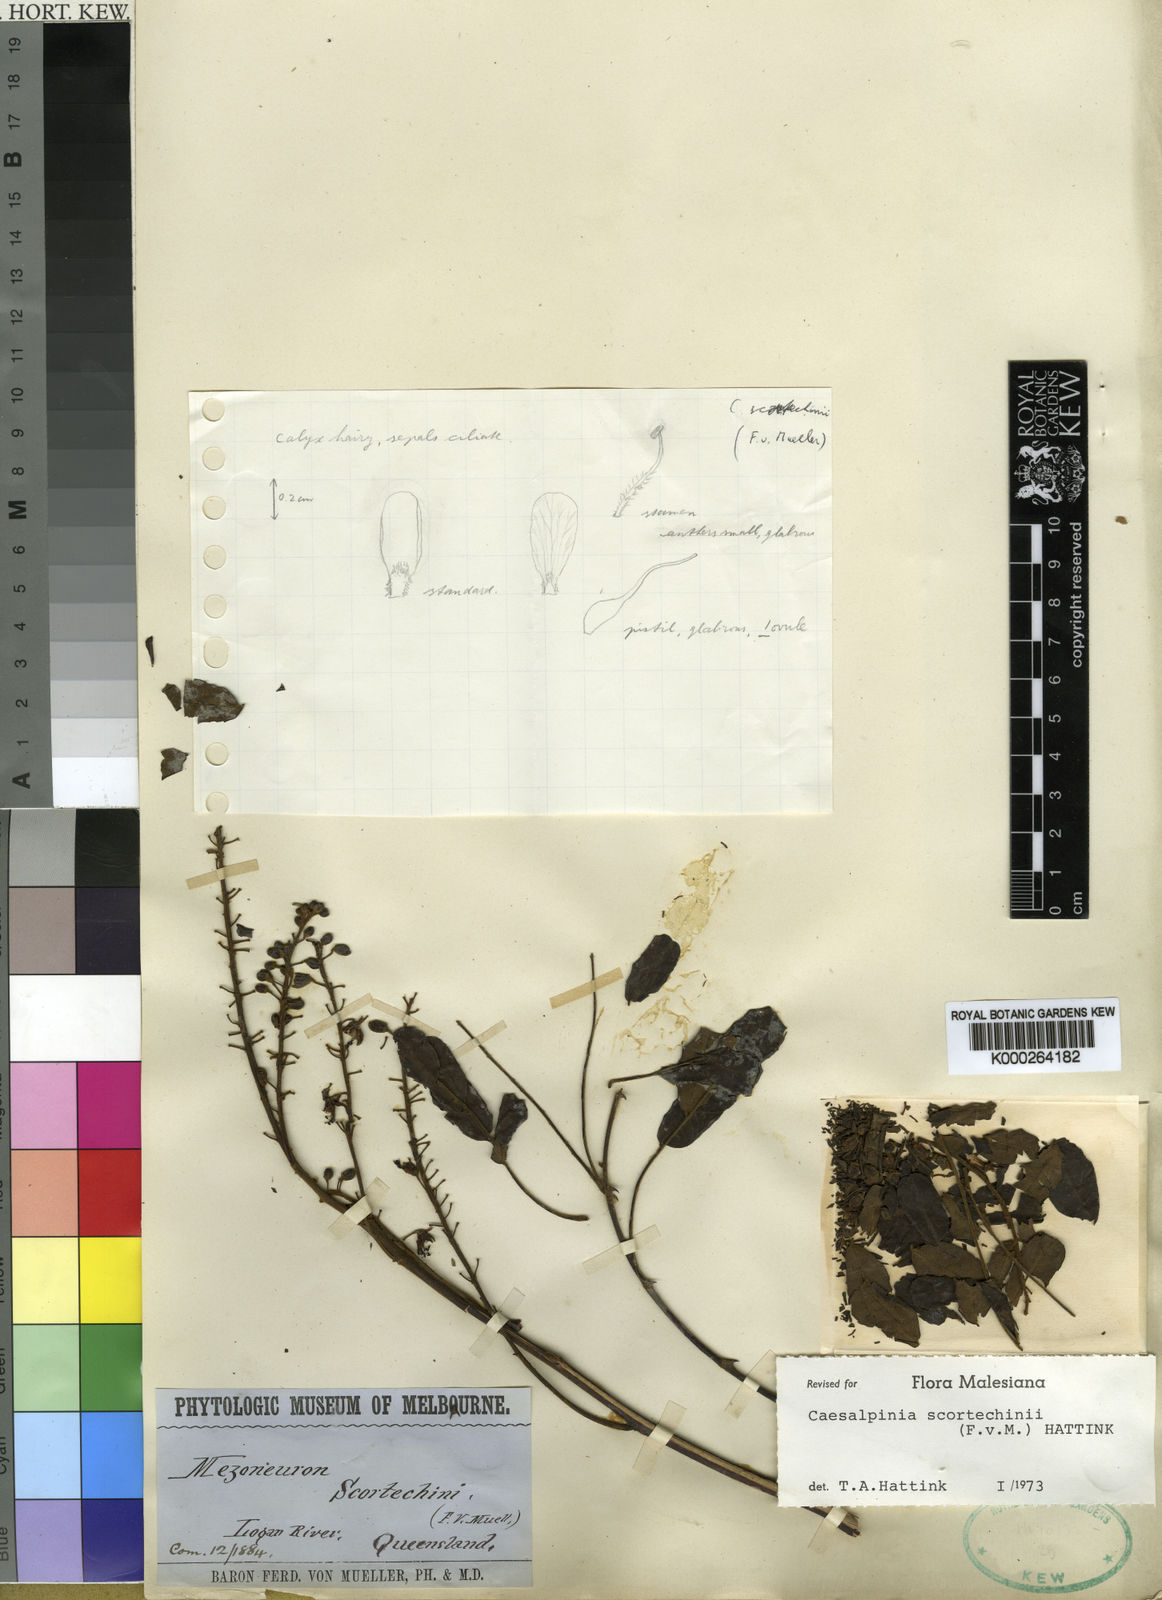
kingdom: Plantae
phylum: Tracheophyta
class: Magnoliopsida
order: Fabales
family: Fabaceae
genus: Mezoneuron
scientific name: Mezoneuron scortechinii
